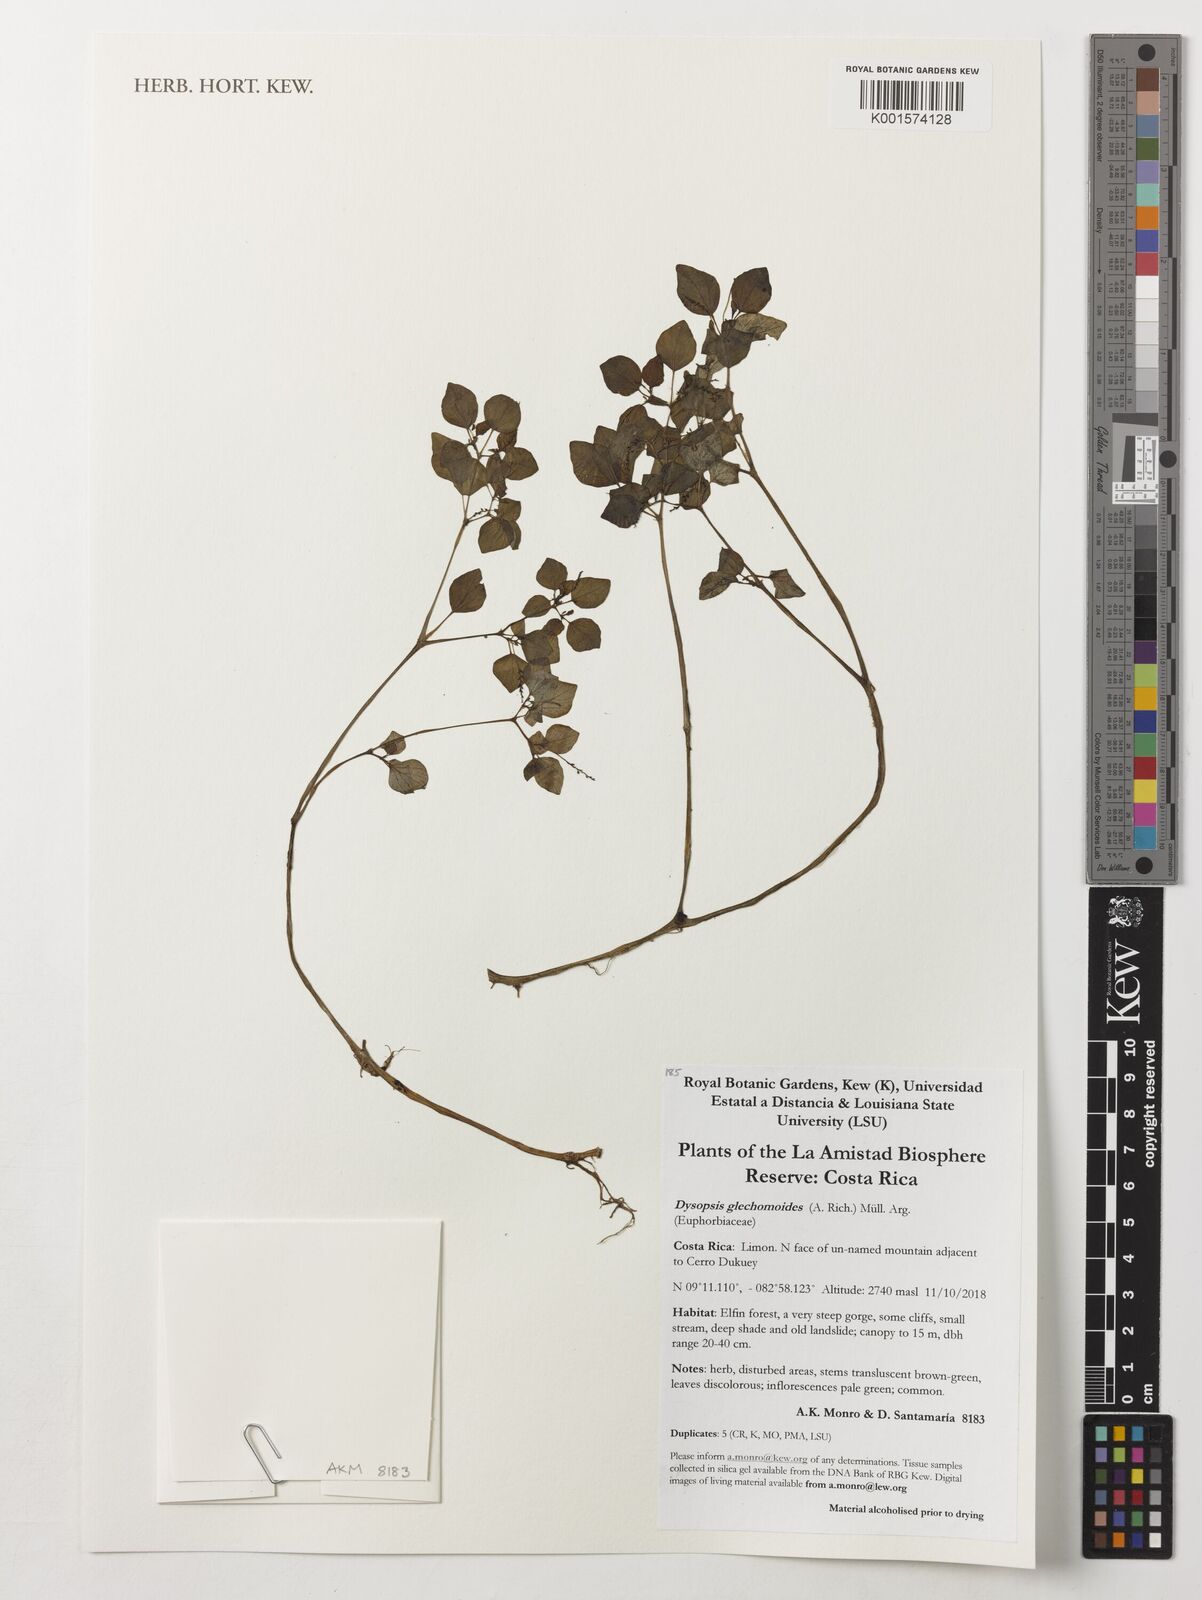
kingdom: Plantae
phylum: Tracheophyta
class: Magnoliopsida
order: Malpighiales
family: Euphorbiaceae
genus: Dysopsis
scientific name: Dysopsis glechomoides
